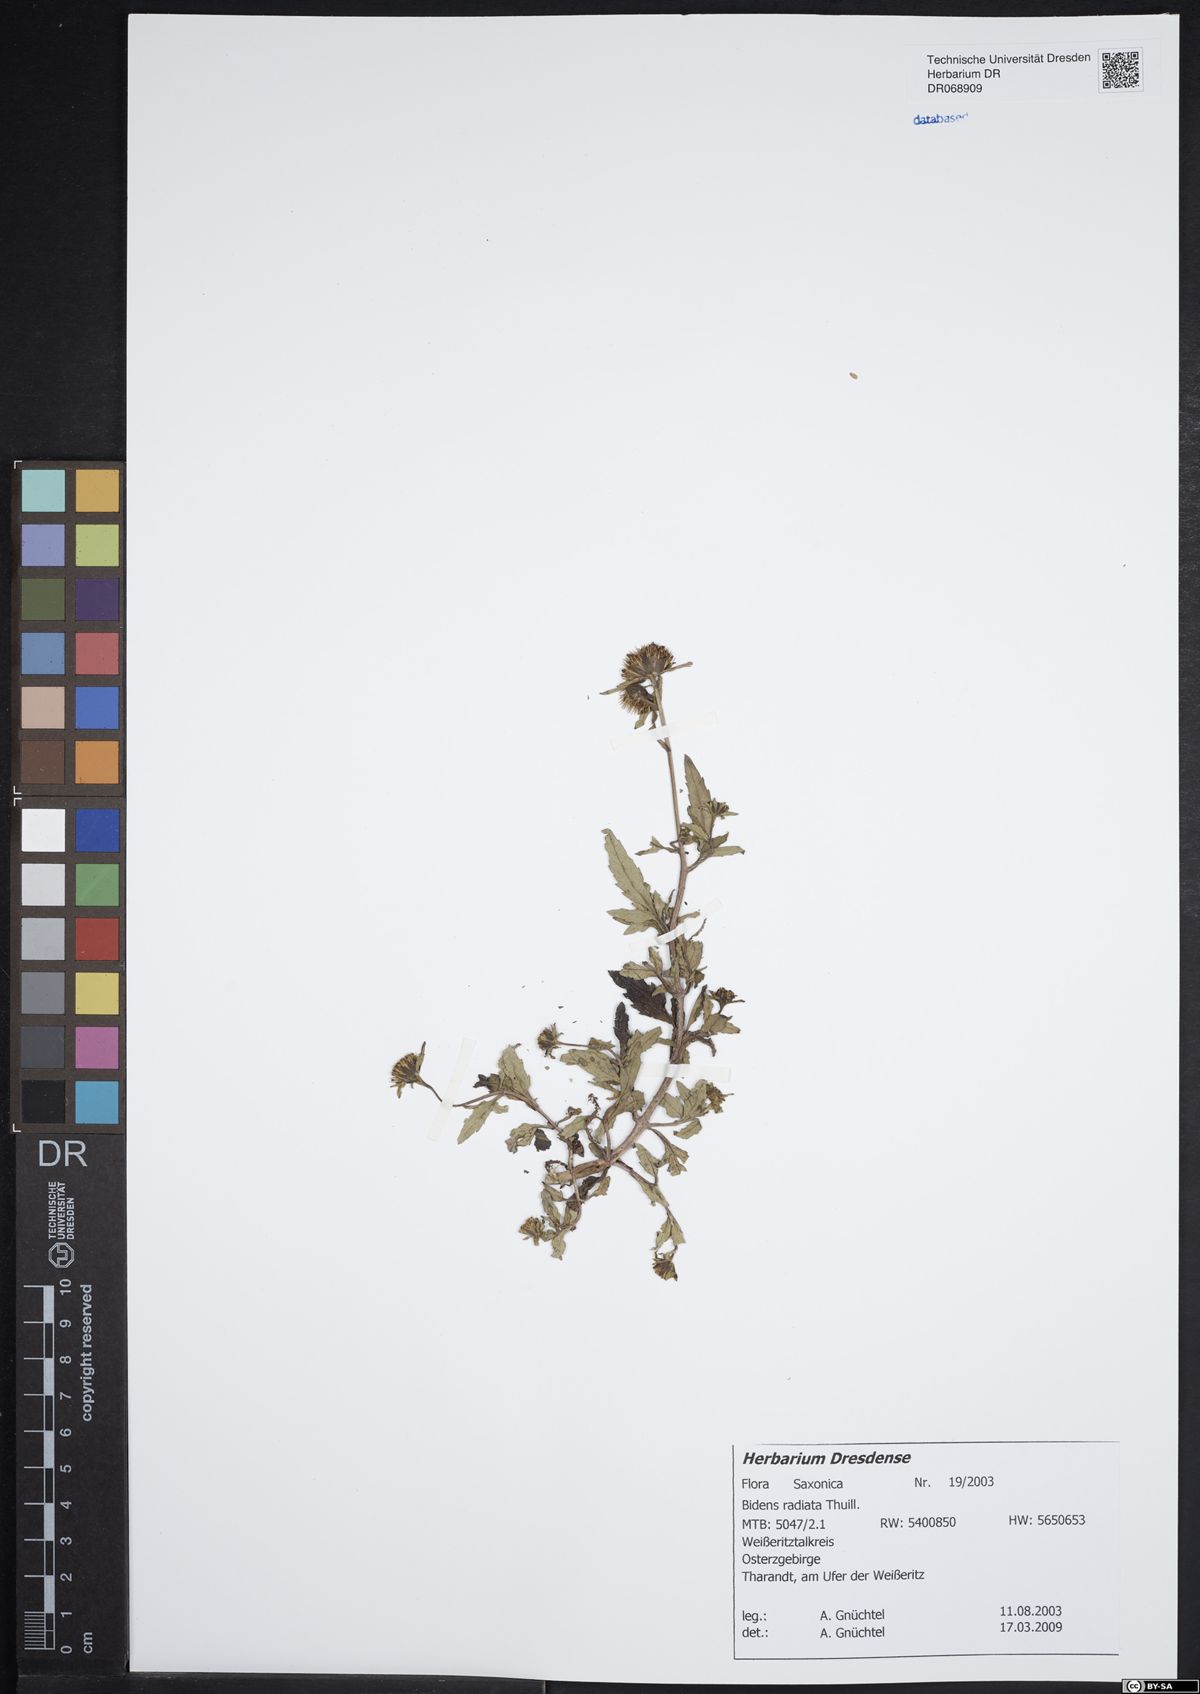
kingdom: Plantae
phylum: Tracheophyta
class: Magnoliopsida
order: Asterales
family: Asteraceae
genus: Bidens
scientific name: Bidens radiata
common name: Radiating bur-marigold
